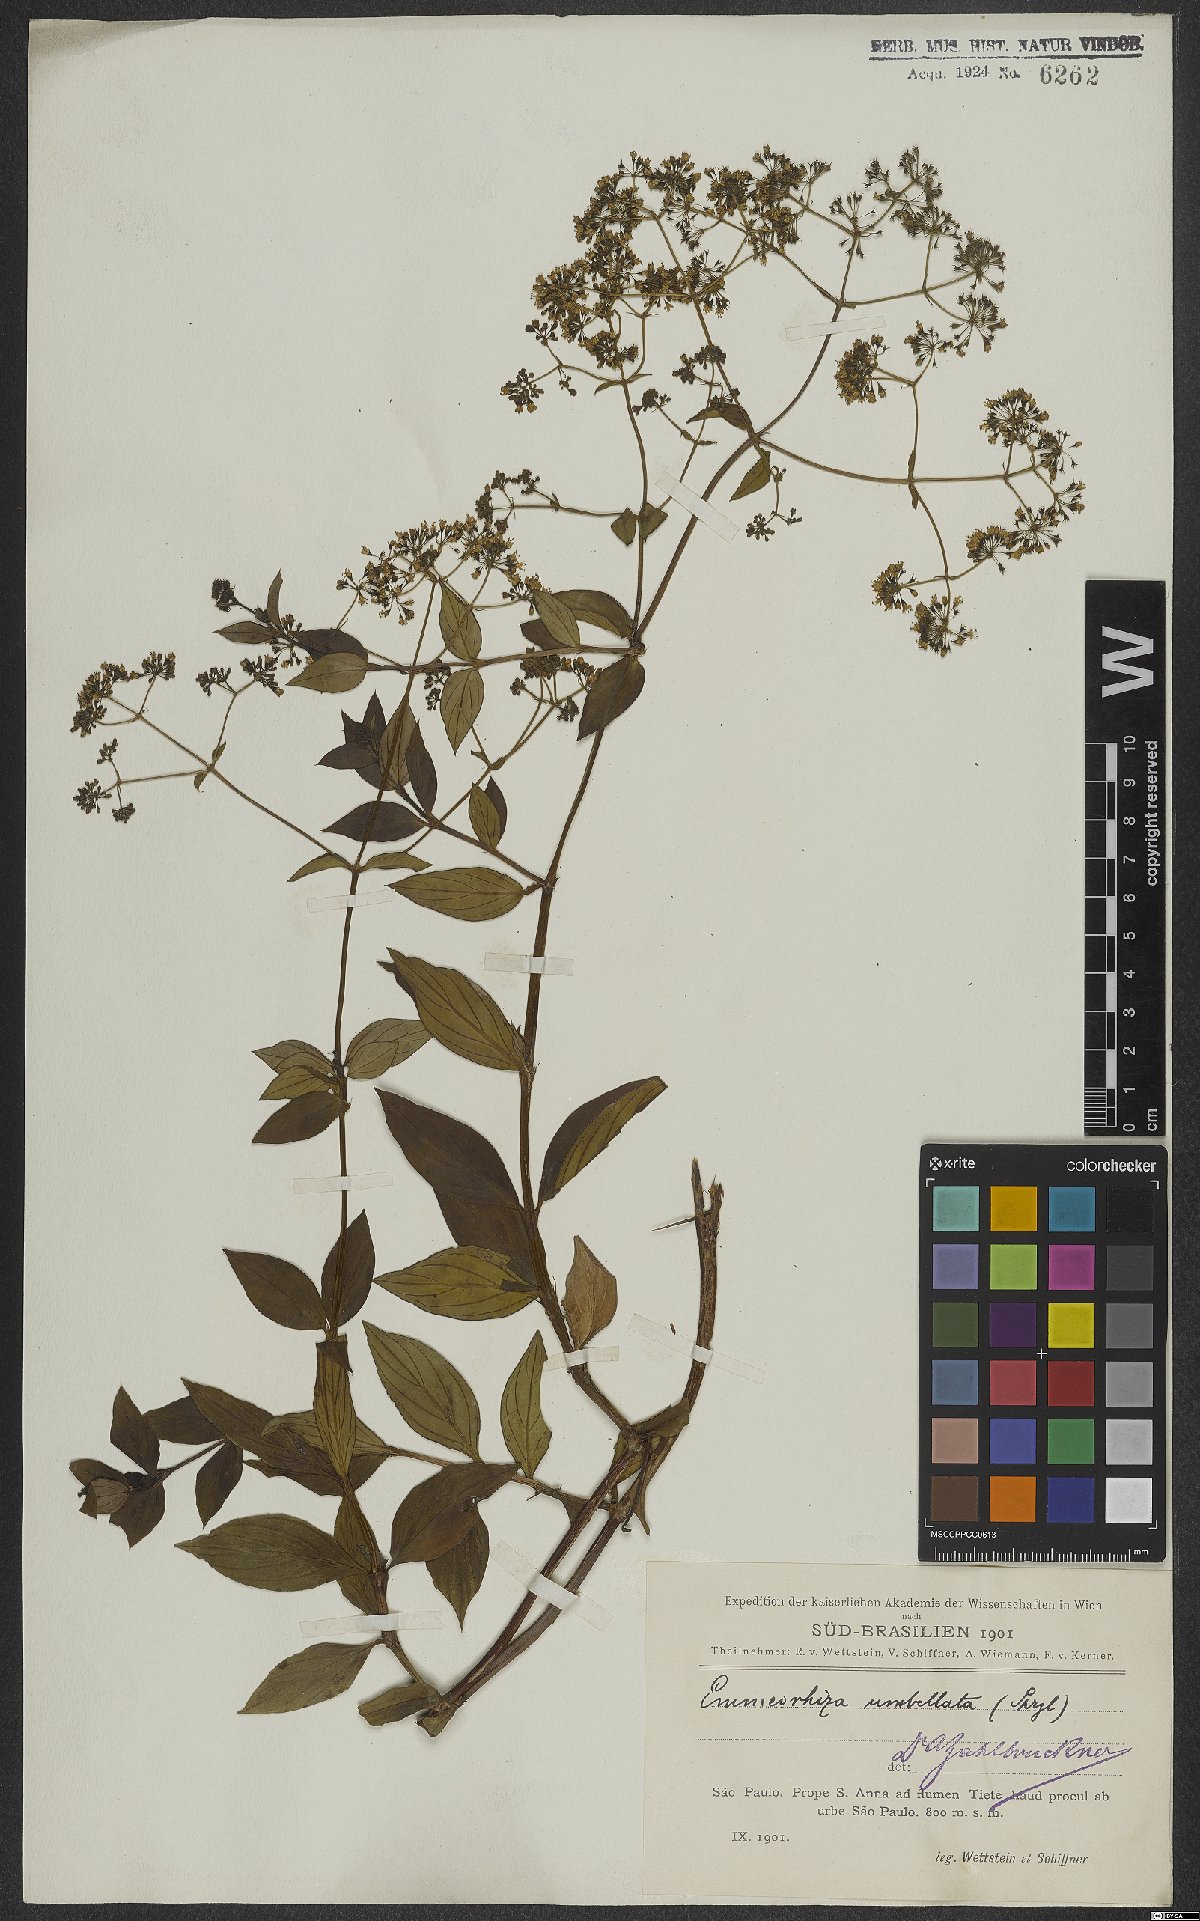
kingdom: Plantae
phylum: Tracheophyta
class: Magnoliopsida
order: Gentianales
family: Rubiaceae
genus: Emmeorhiza
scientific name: Emmeorhiza umbellata
